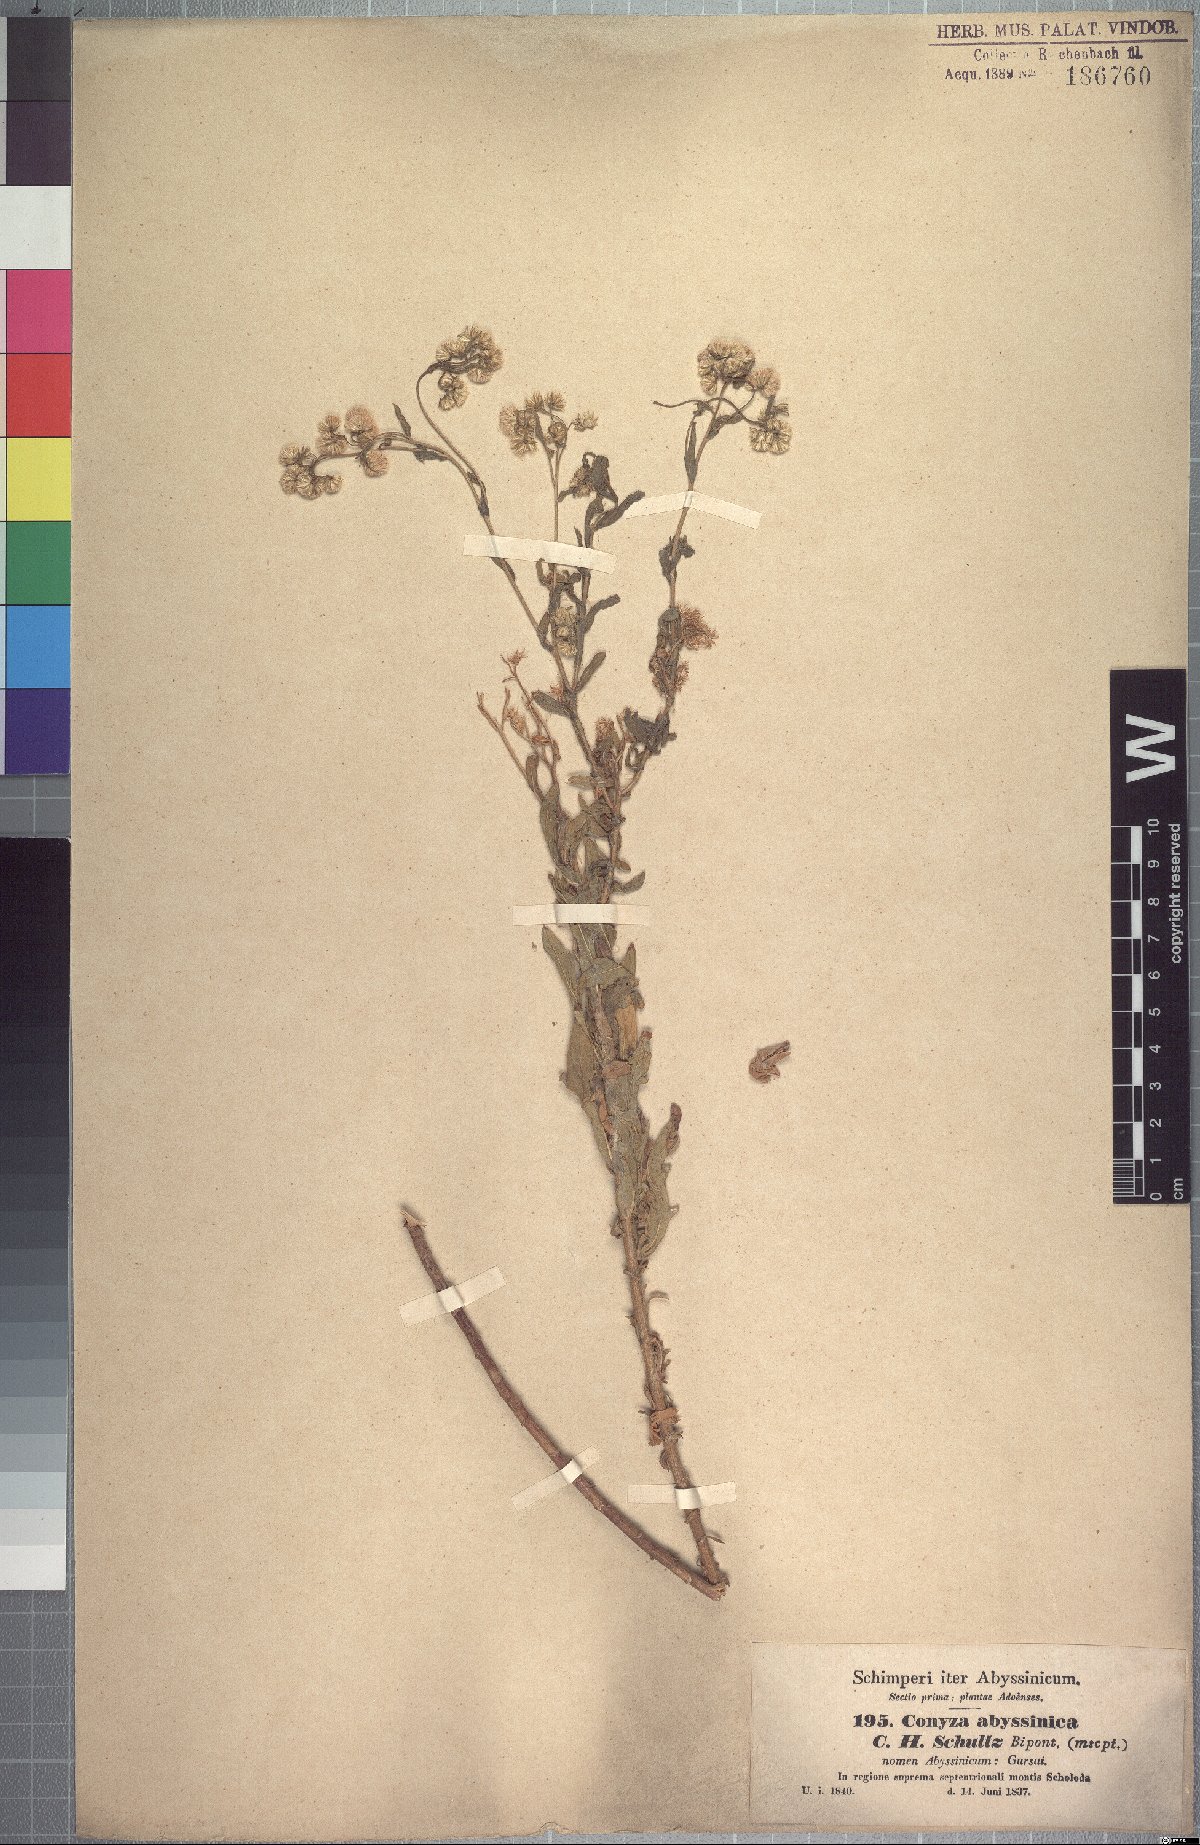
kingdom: Plantae
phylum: Tracheophyta
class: Magnoliopsida
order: Asterales
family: Asteraceae
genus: Conyza
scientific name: Conyza abyssinica
